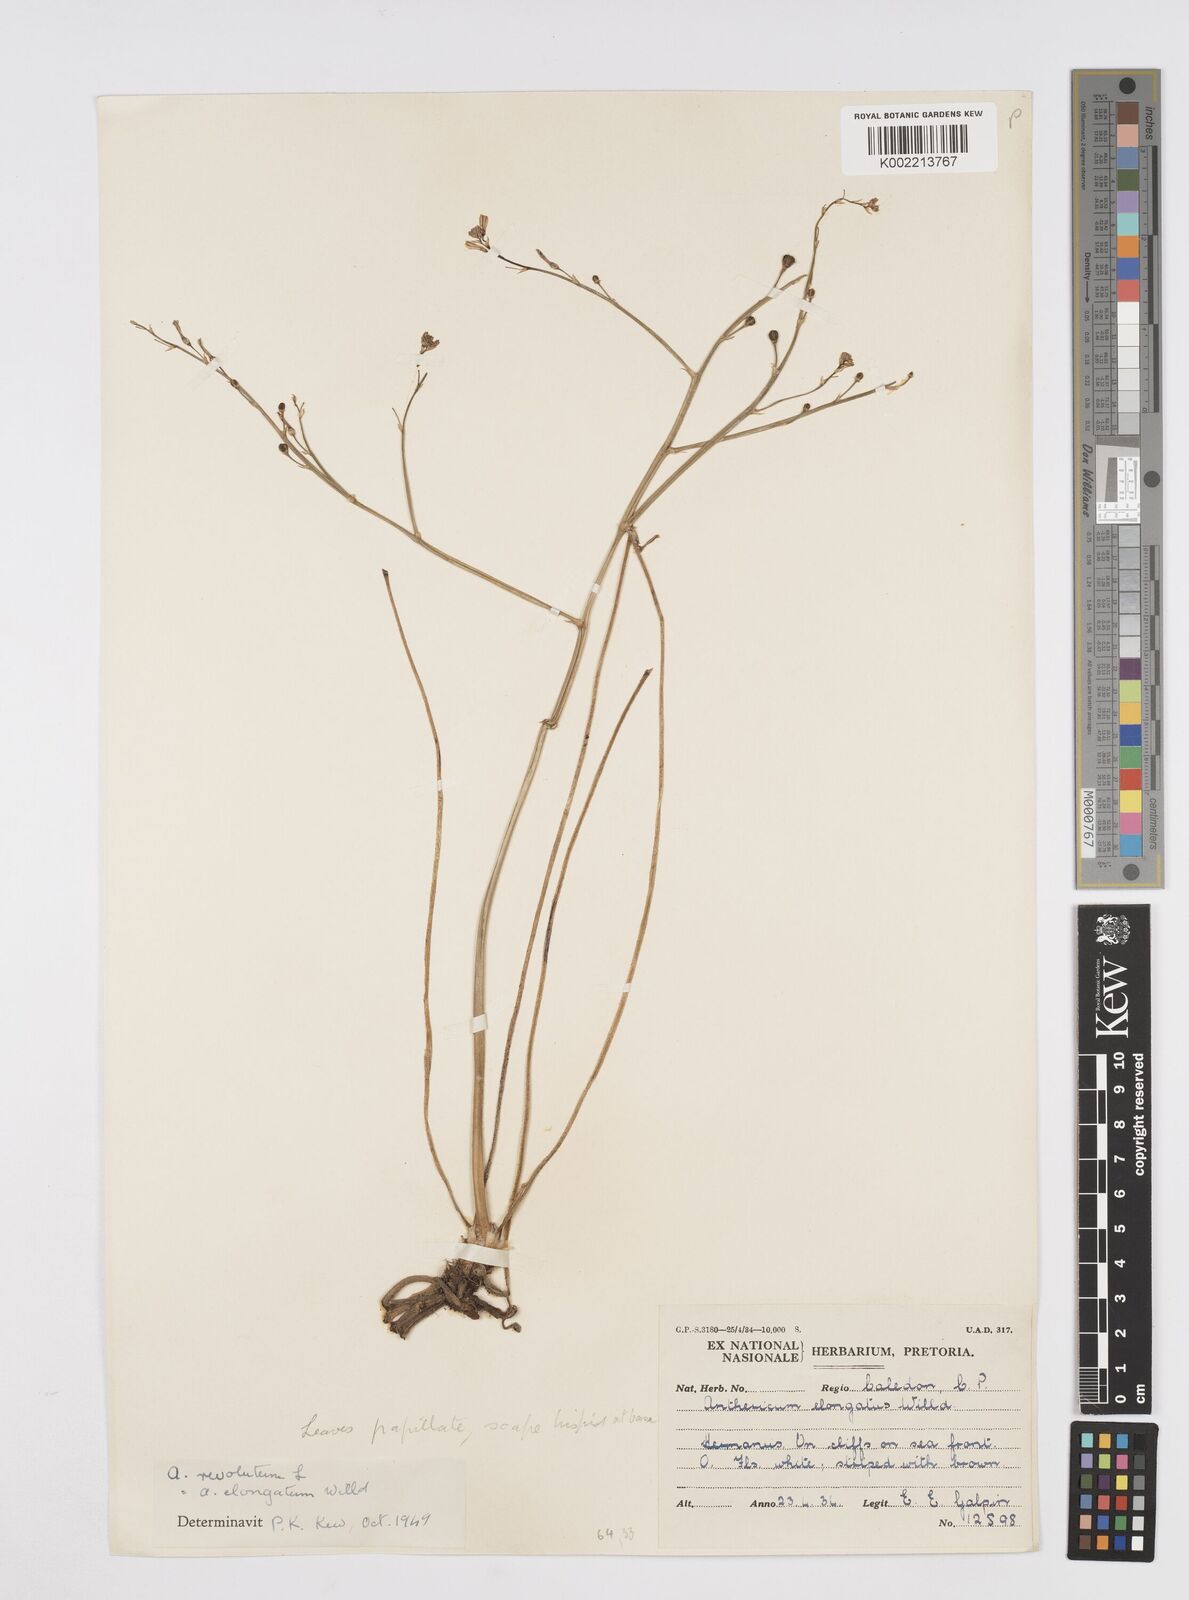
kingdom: Plantae
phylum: Tracheophyta
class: Liliopsida
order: Asparagales
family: Asphodelaceae
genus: Trachyandra
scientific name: Trachyandra revoluta
